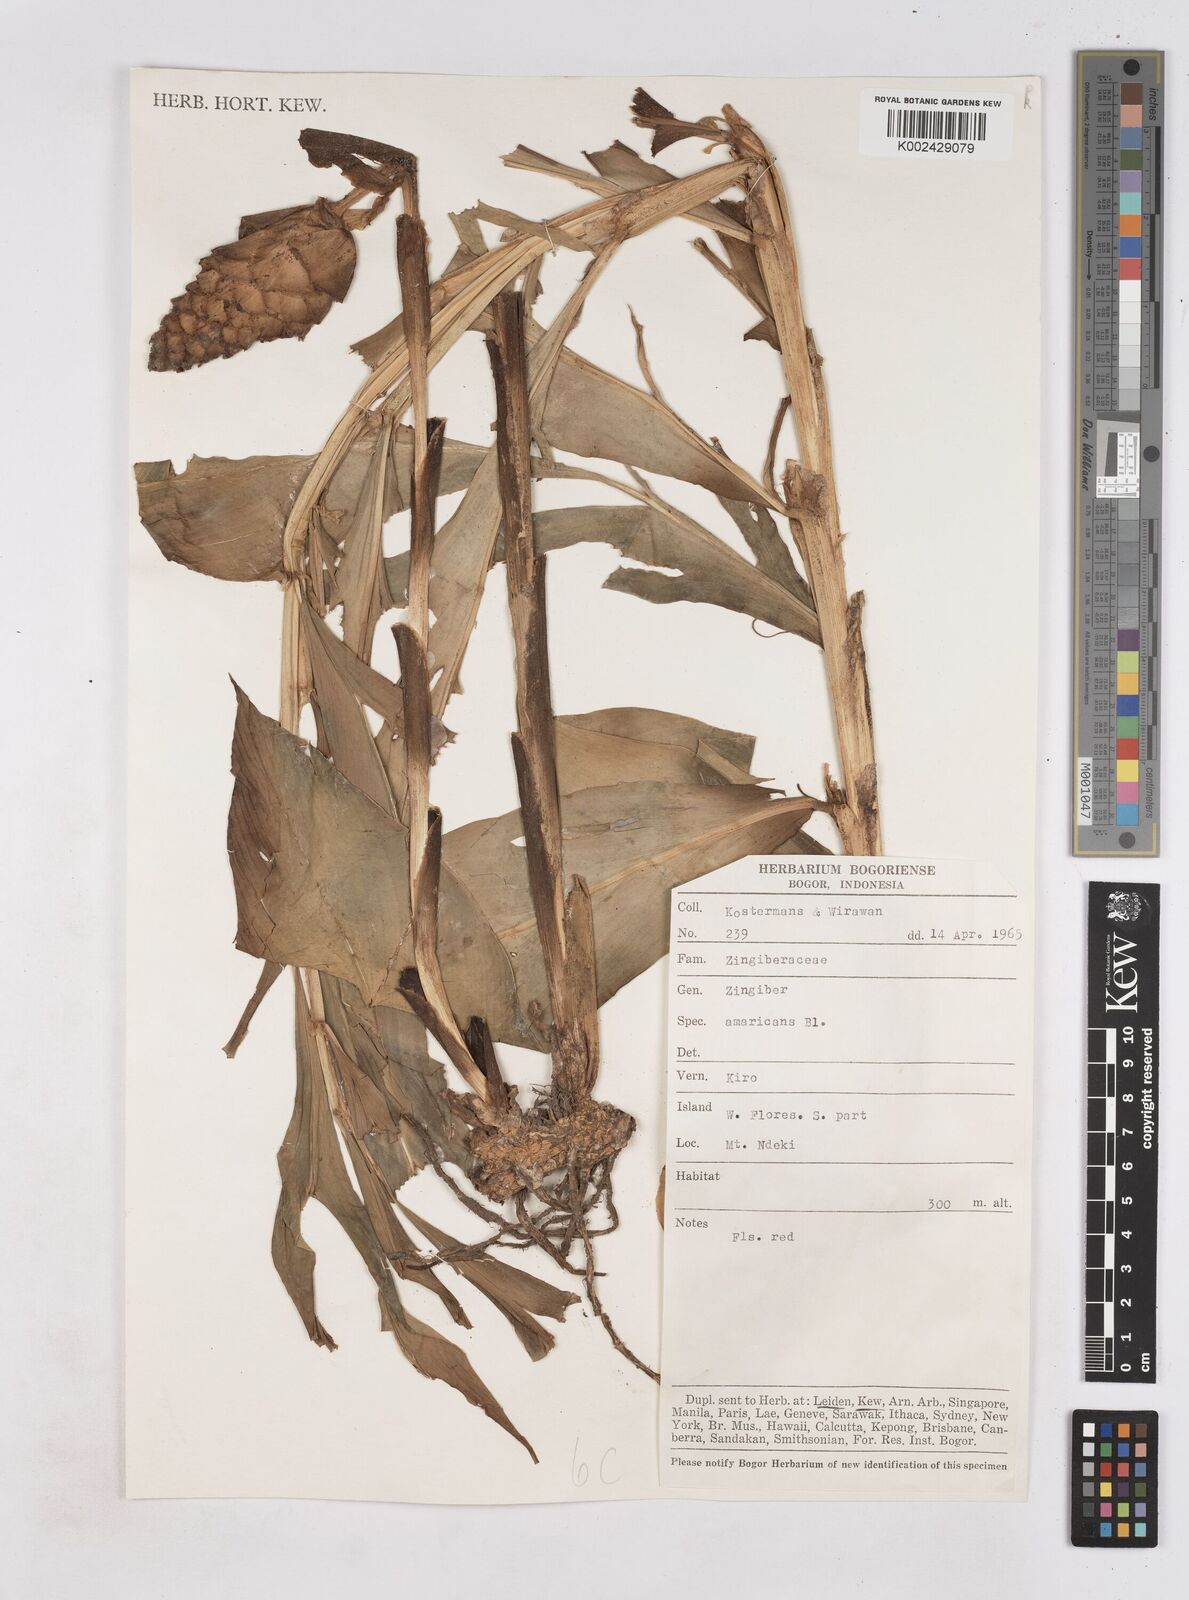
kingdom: Plantae
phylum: Tracheophyta
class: Liliopsida
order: Zingiberales
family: Zingiberaceae
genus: Zingiber
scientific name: Zingiber zerumbet
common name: Bitter ginger
